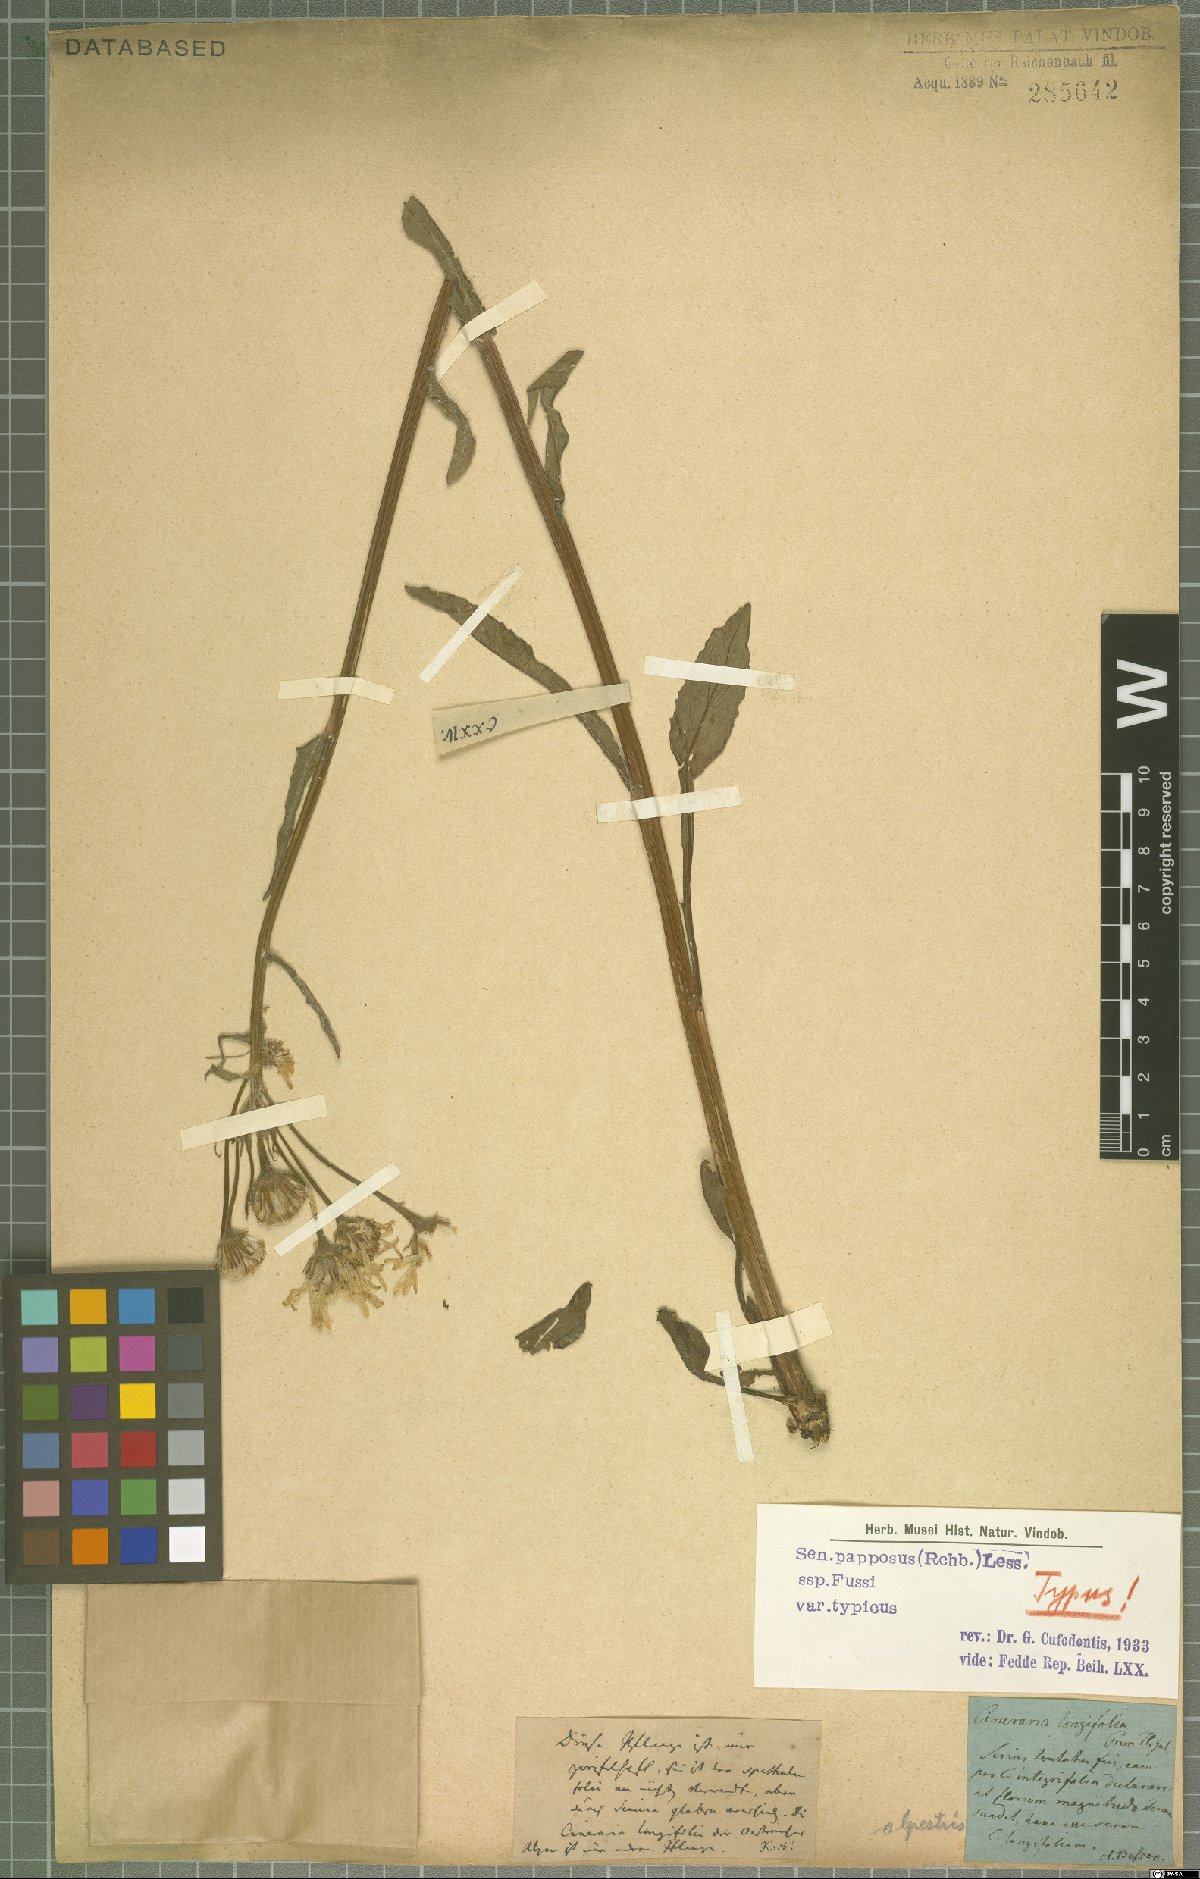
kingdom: Plantae
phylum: Tracheophyta
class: Magnoliopsida
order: Asterales
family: Asteraceae
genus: Tephroseris
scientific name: Tephroseris papposa
